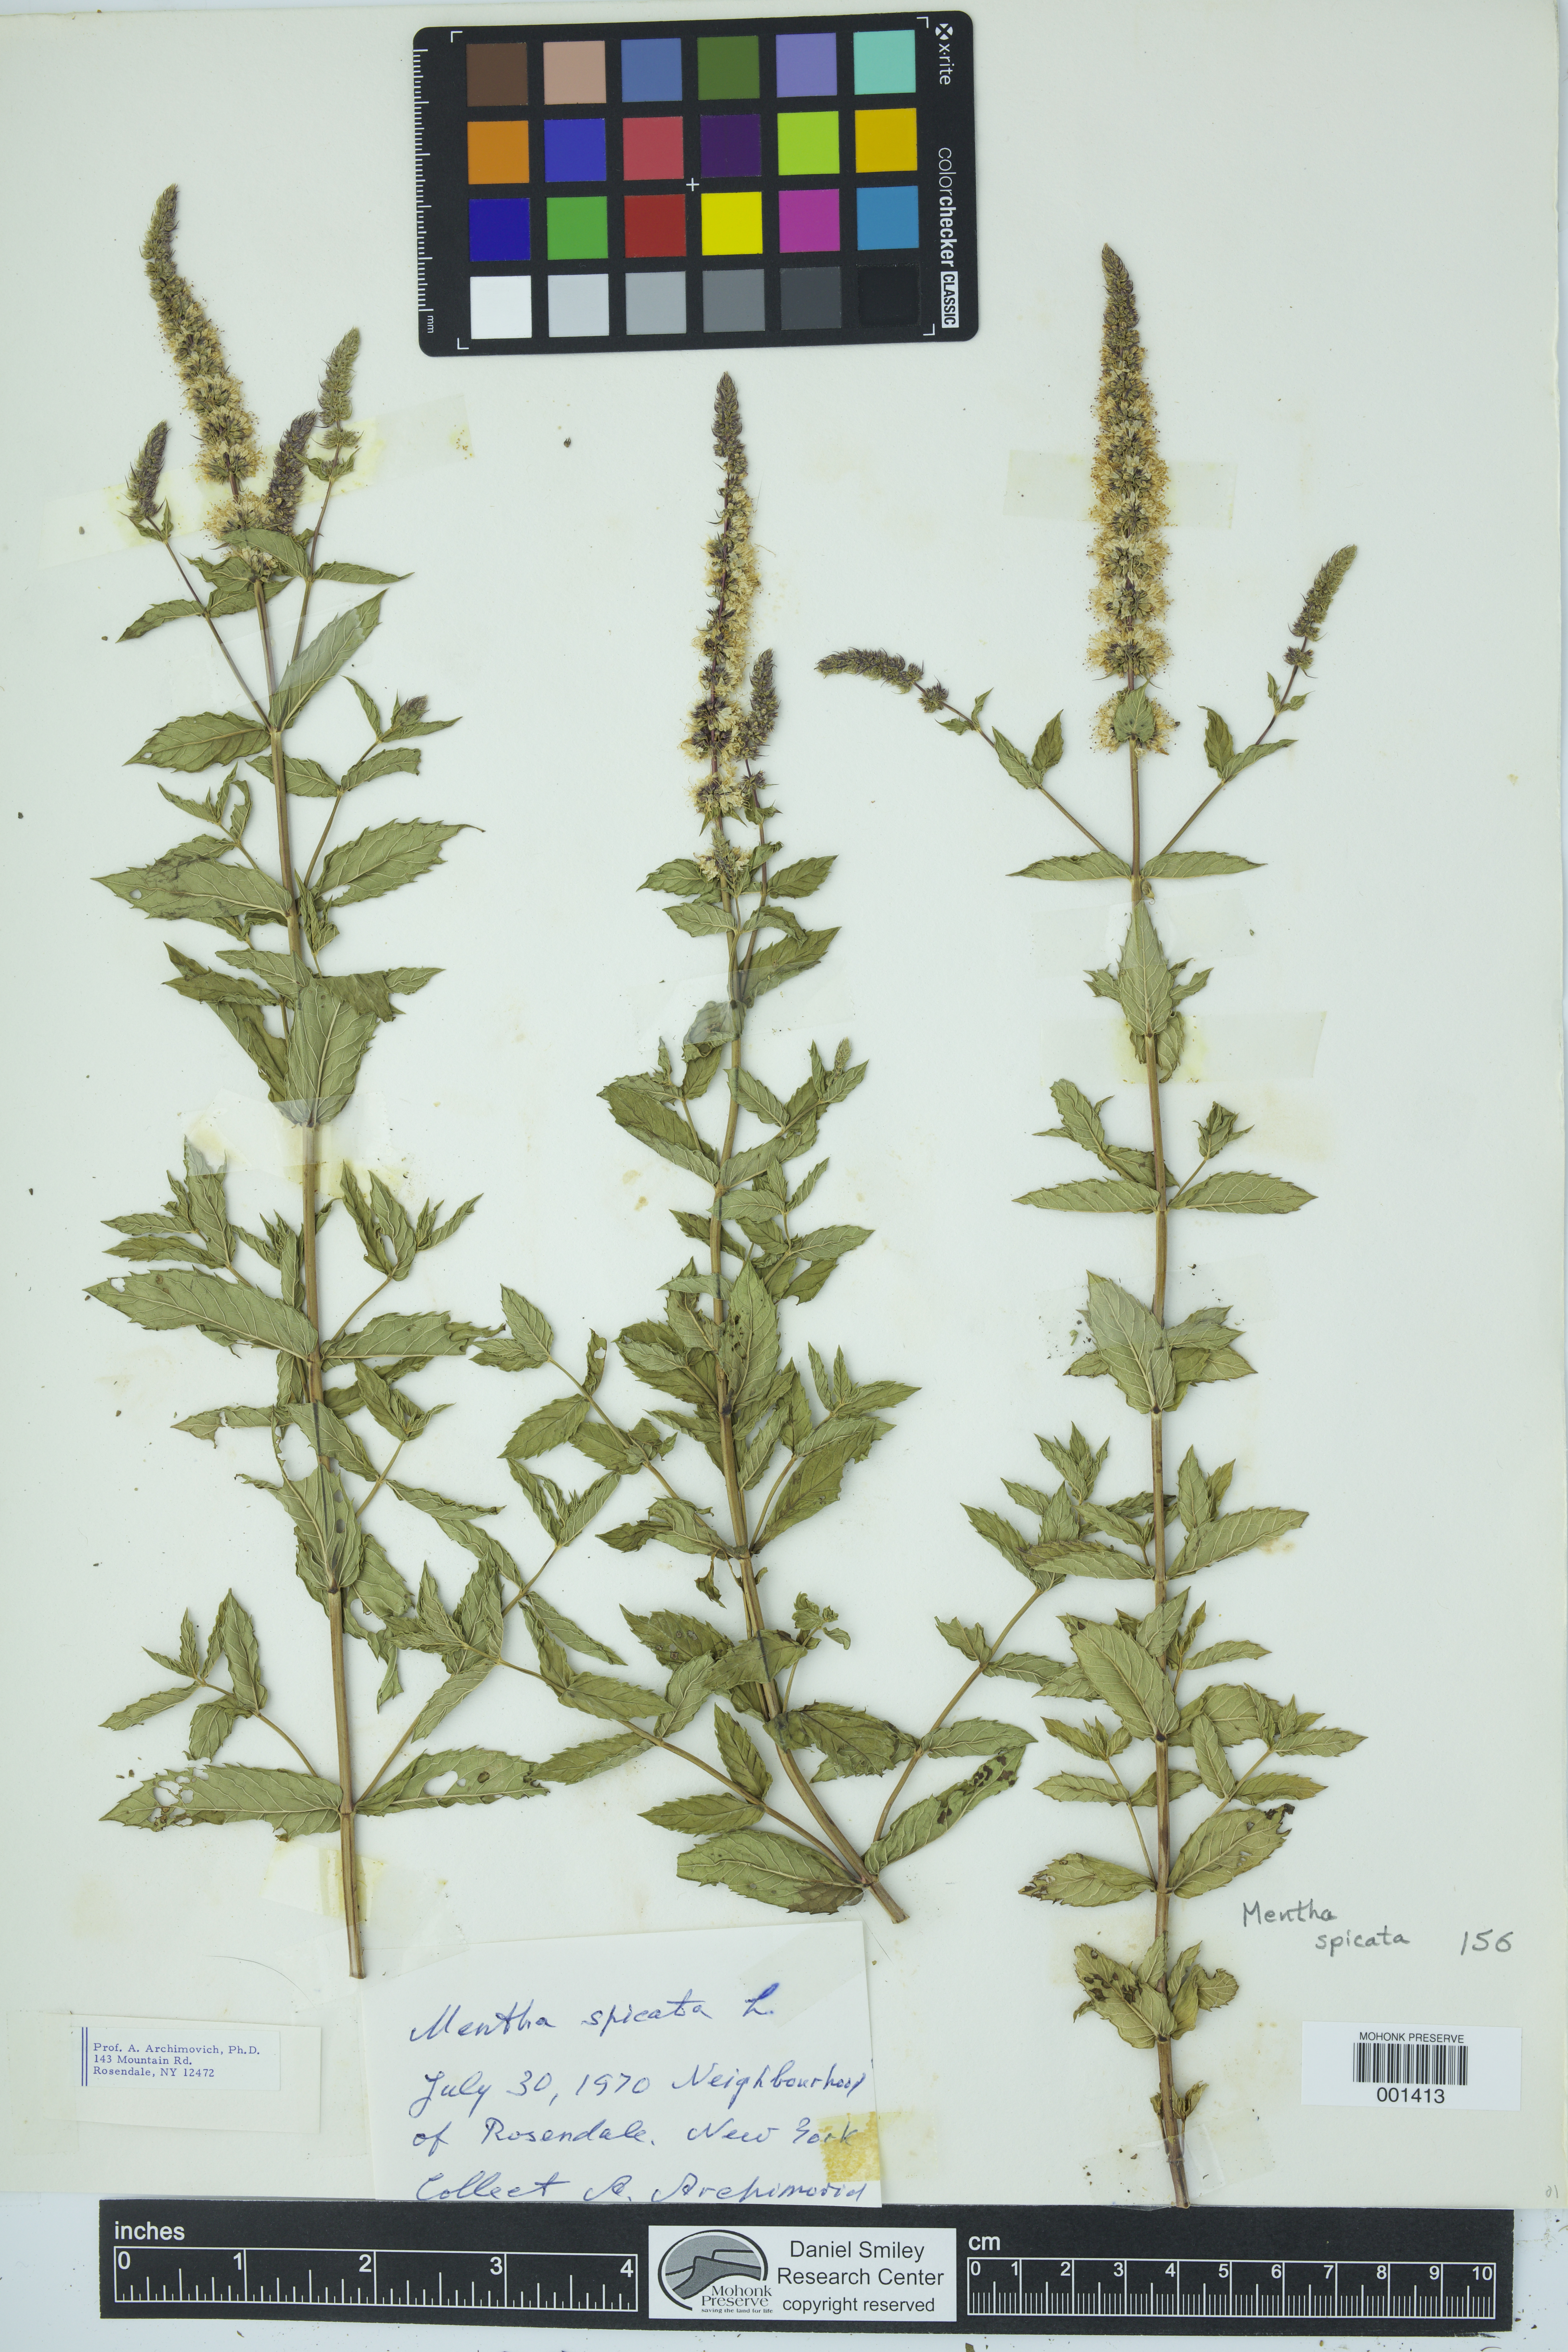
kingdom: Plantae
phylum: Tracheophyta
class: Magnoliopsida
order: Lamiales
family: Lamiaceae
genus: Mentha
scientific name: Mentha spicata
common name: Spearmint
